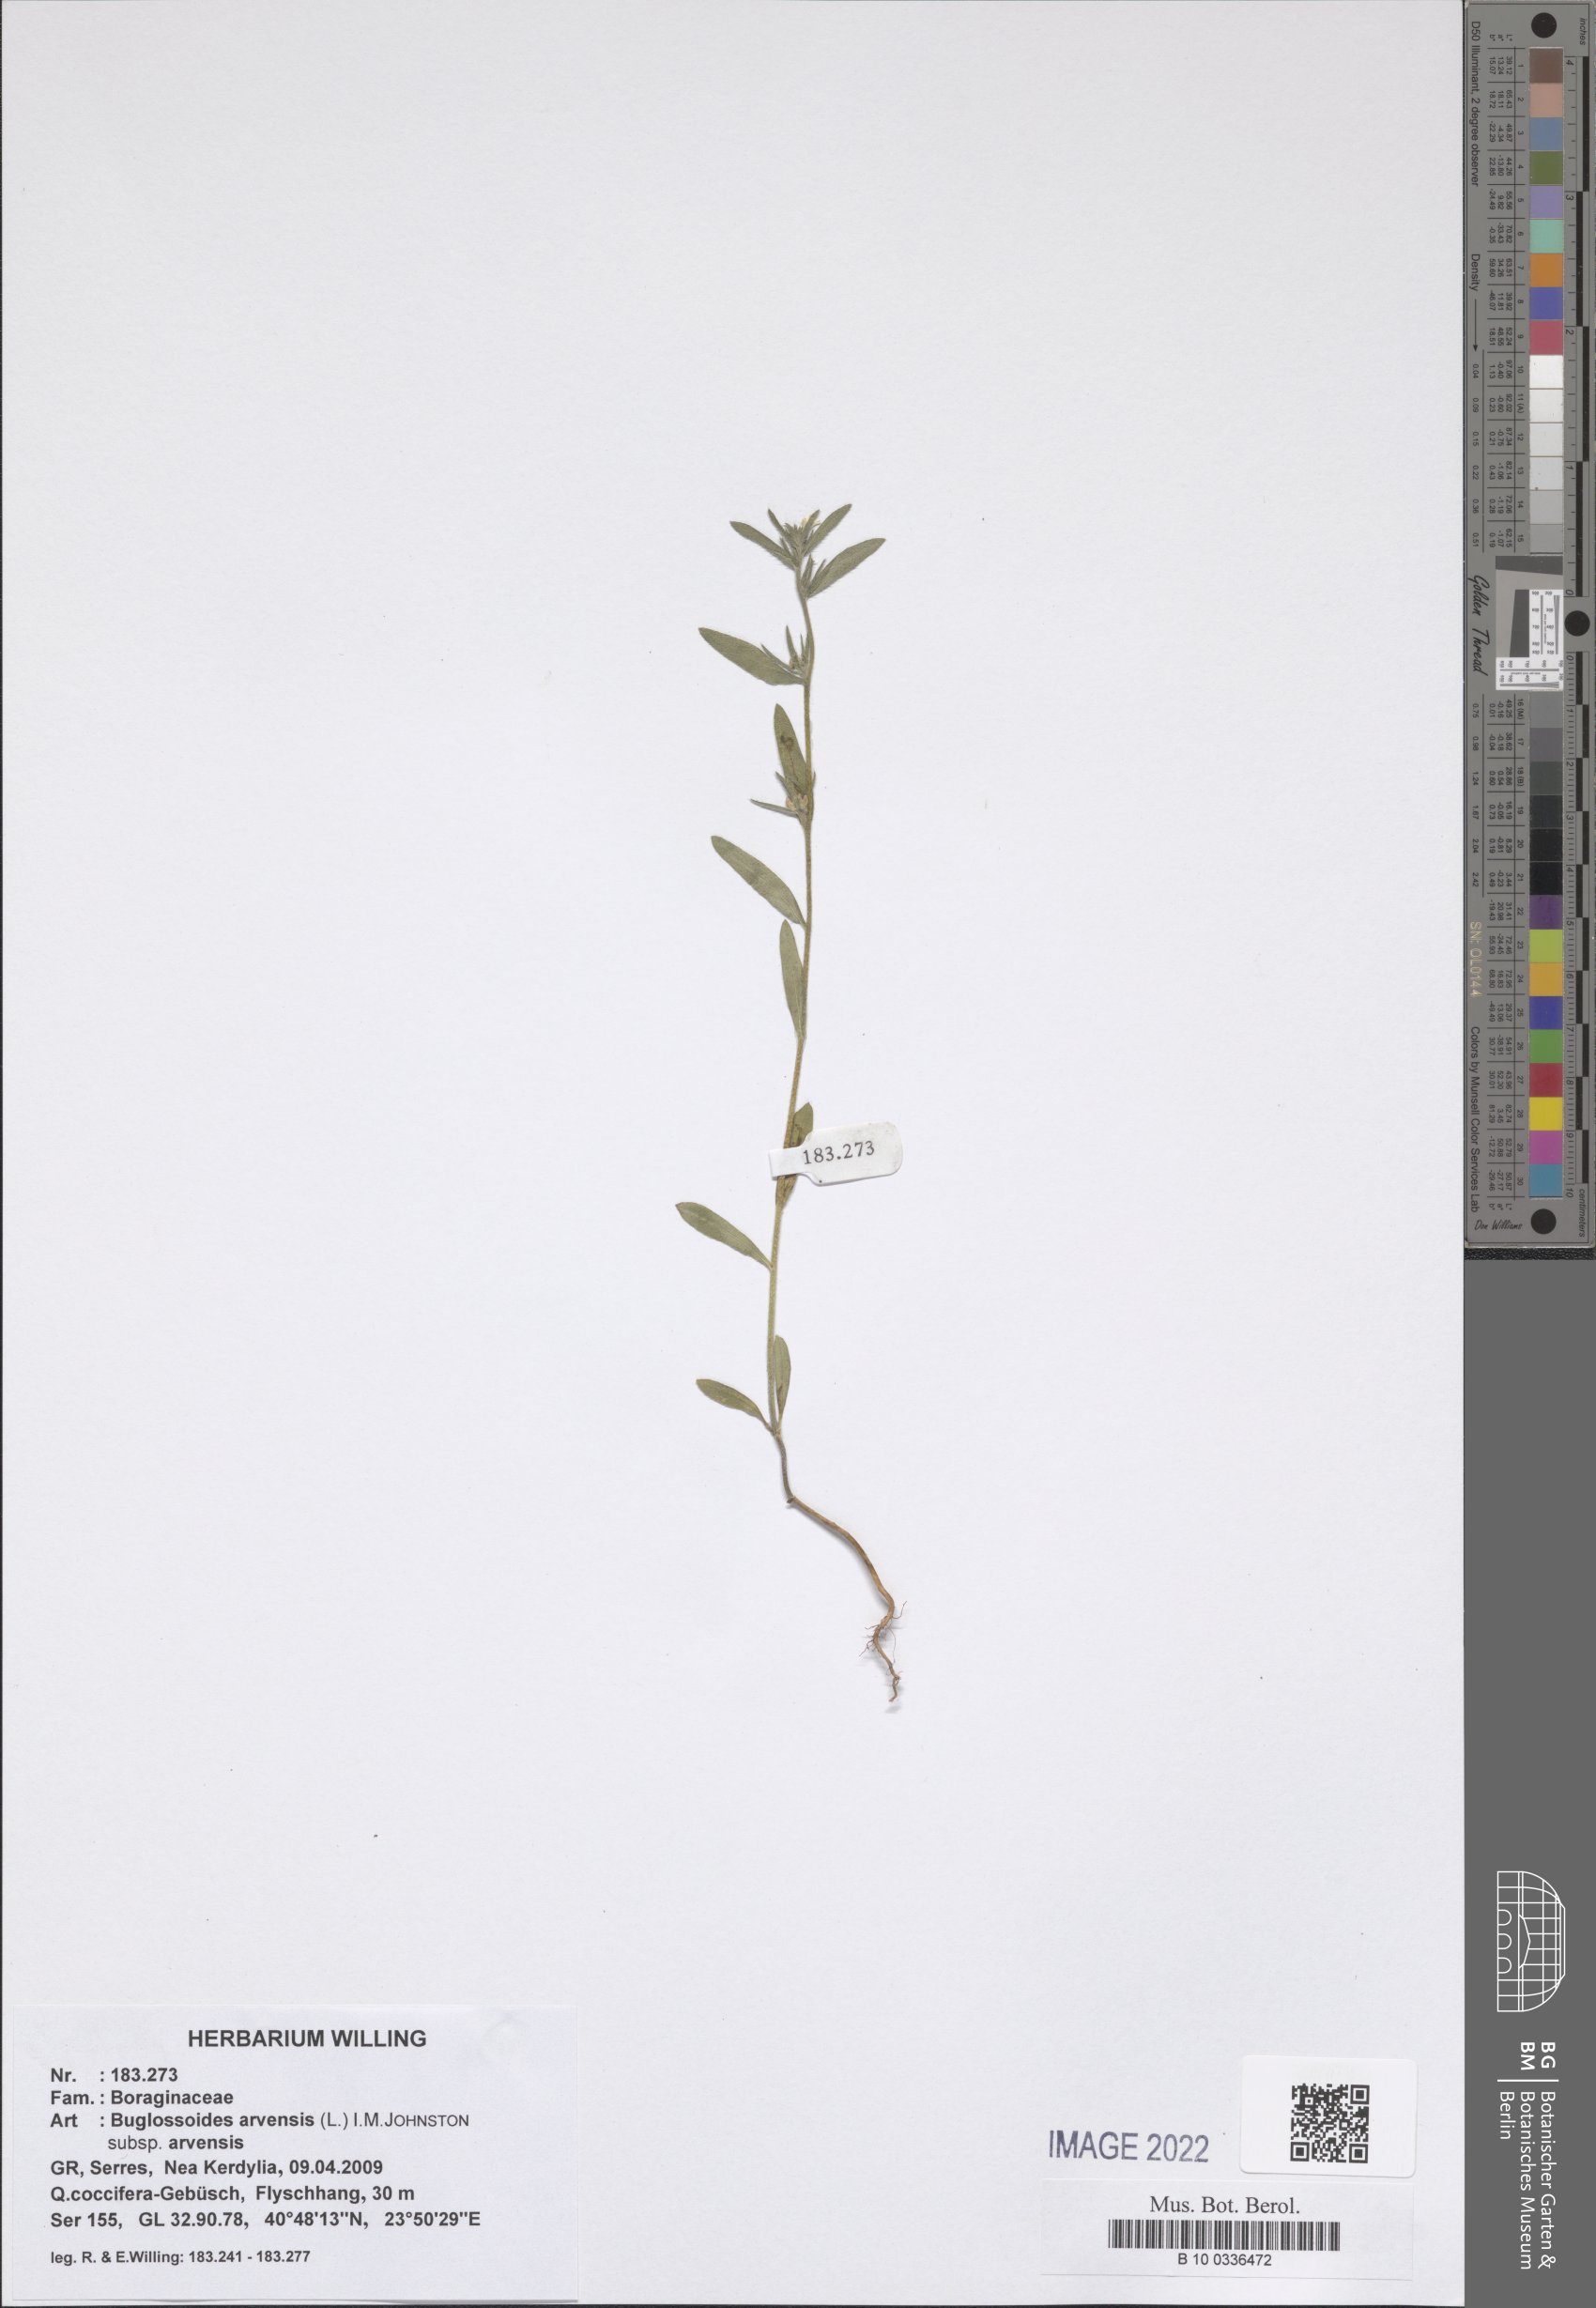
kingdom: Plantae
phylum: Tracheophyta
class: Magnoliopsida
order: Boraginales
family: Boraginaceae
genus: Buglossoides
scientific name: Buglossoides arvensis
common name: Corn gromwell
